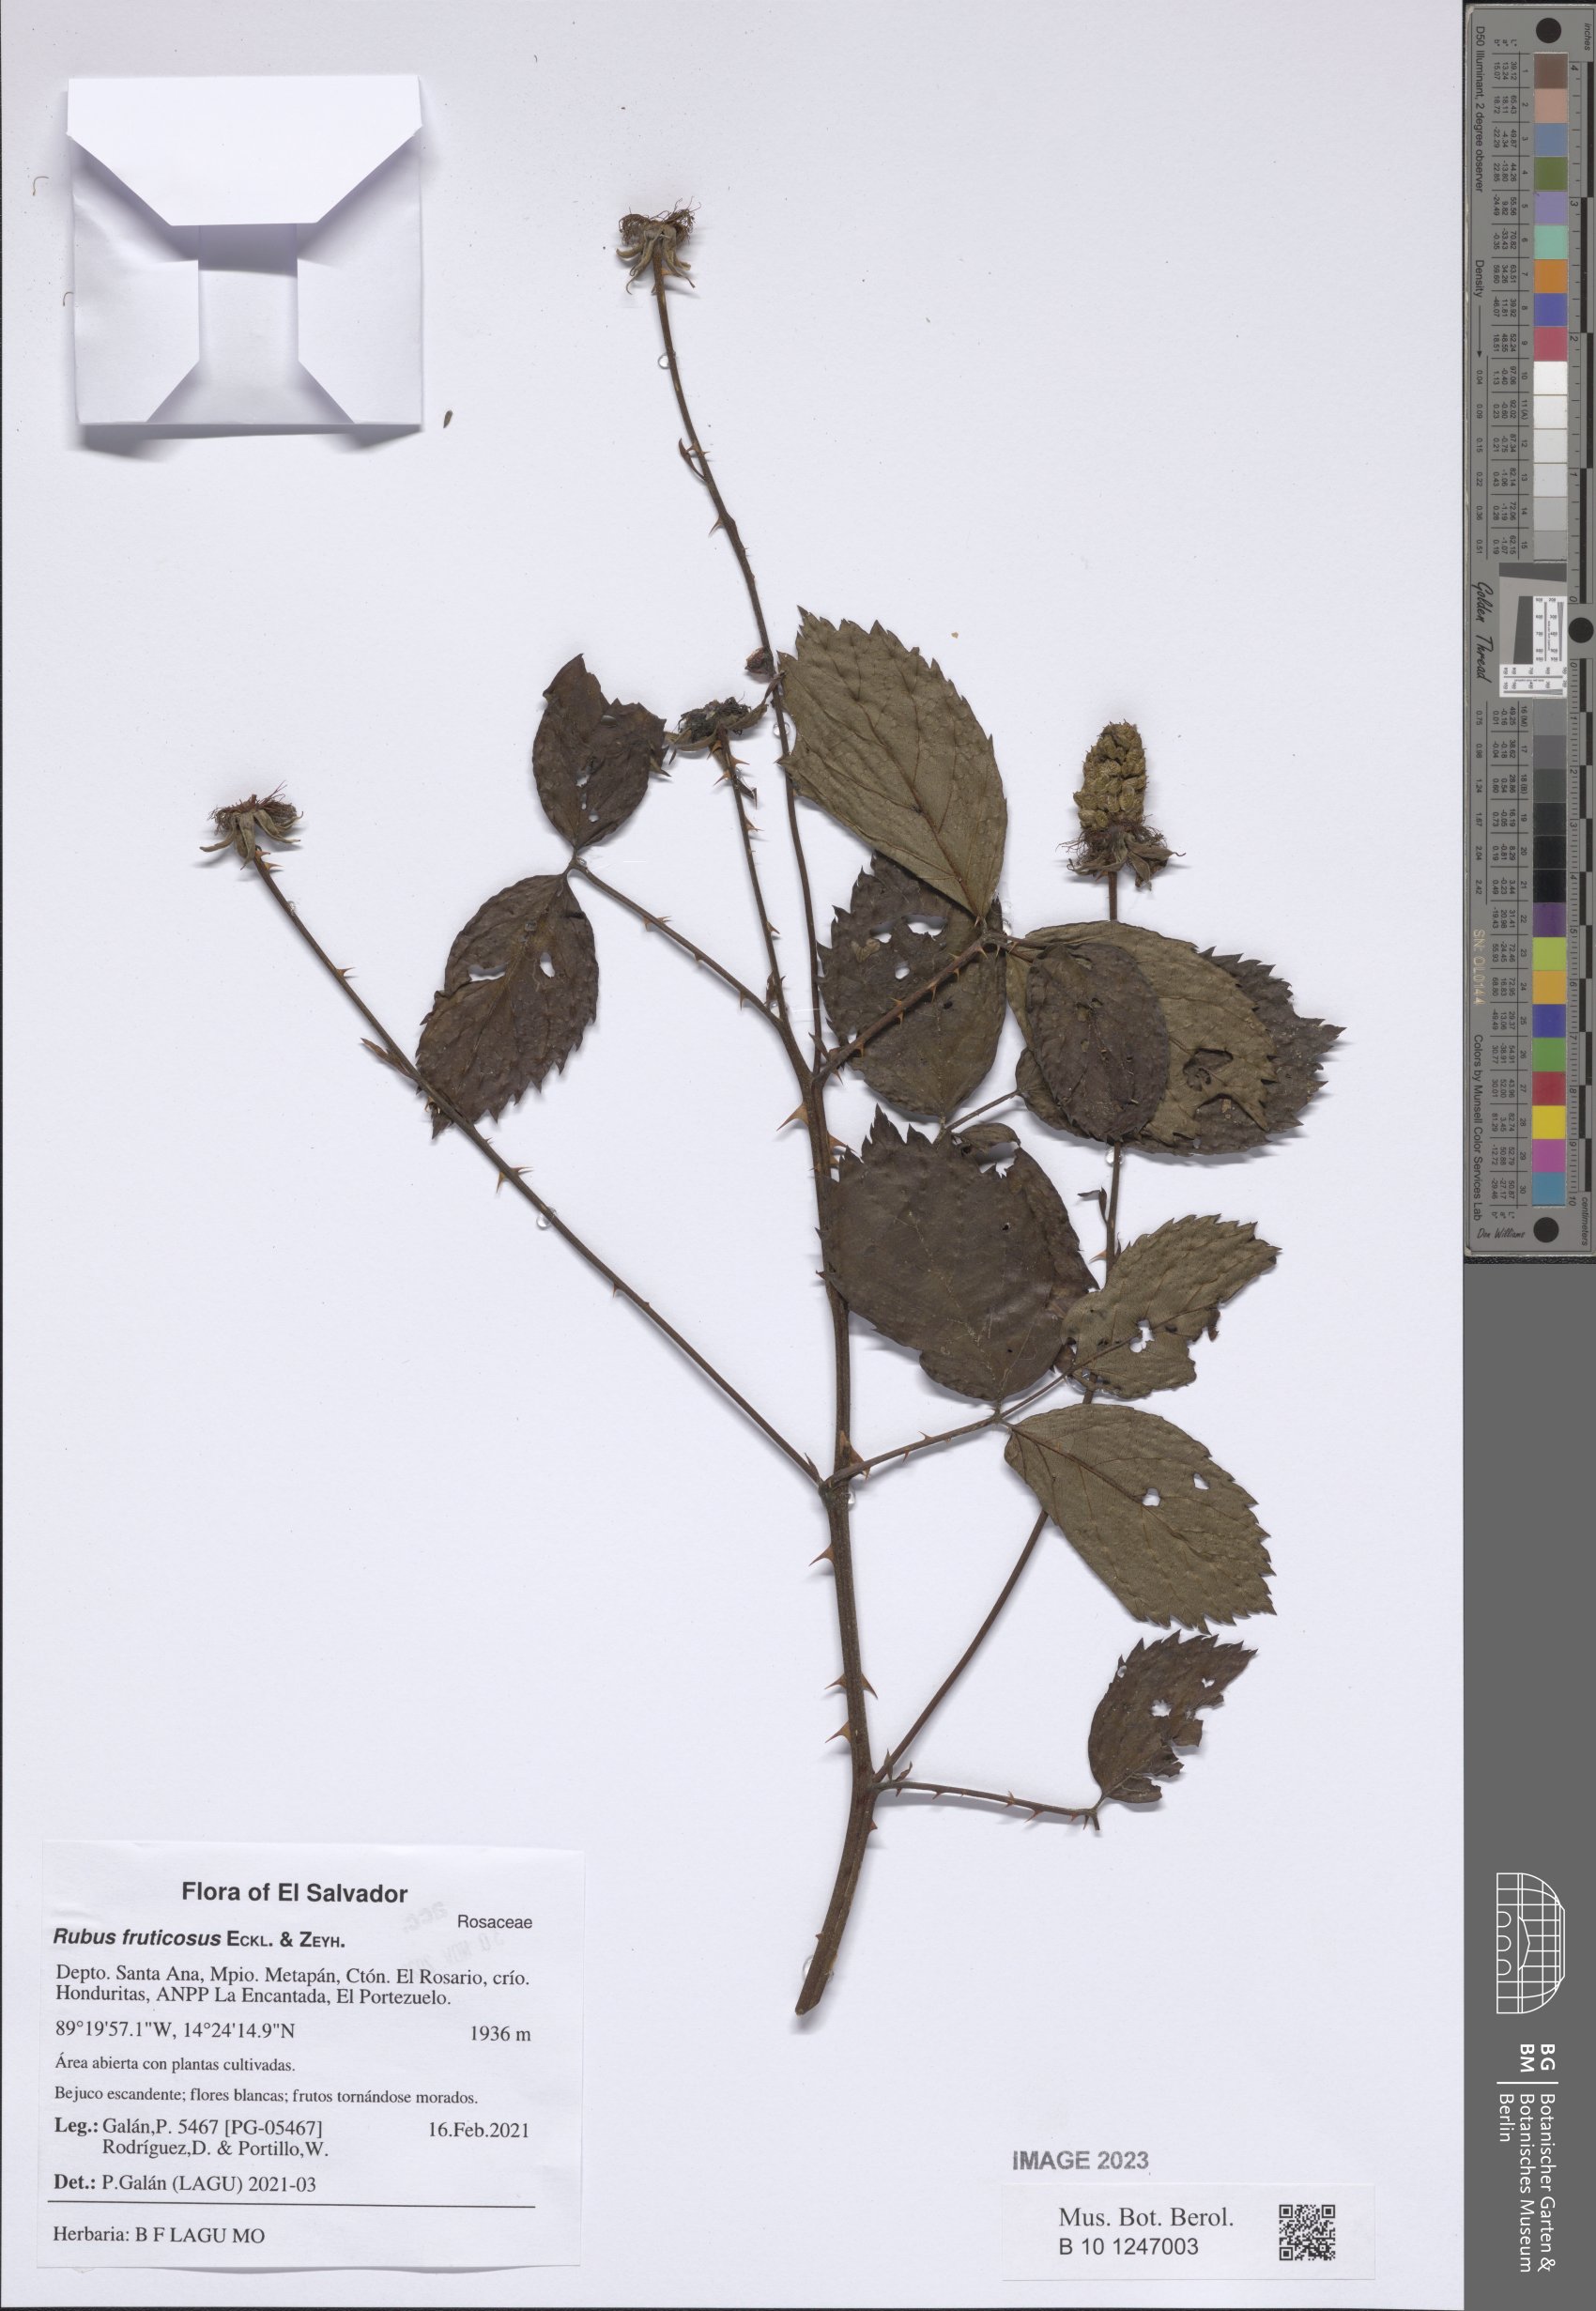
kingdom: Plantae
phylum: Tracheophyta
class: Magnoliopsida
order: Rosales
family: Rosaceae
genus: Rubus
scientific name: Rubus fruticosus
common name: Blackberry, bramble
